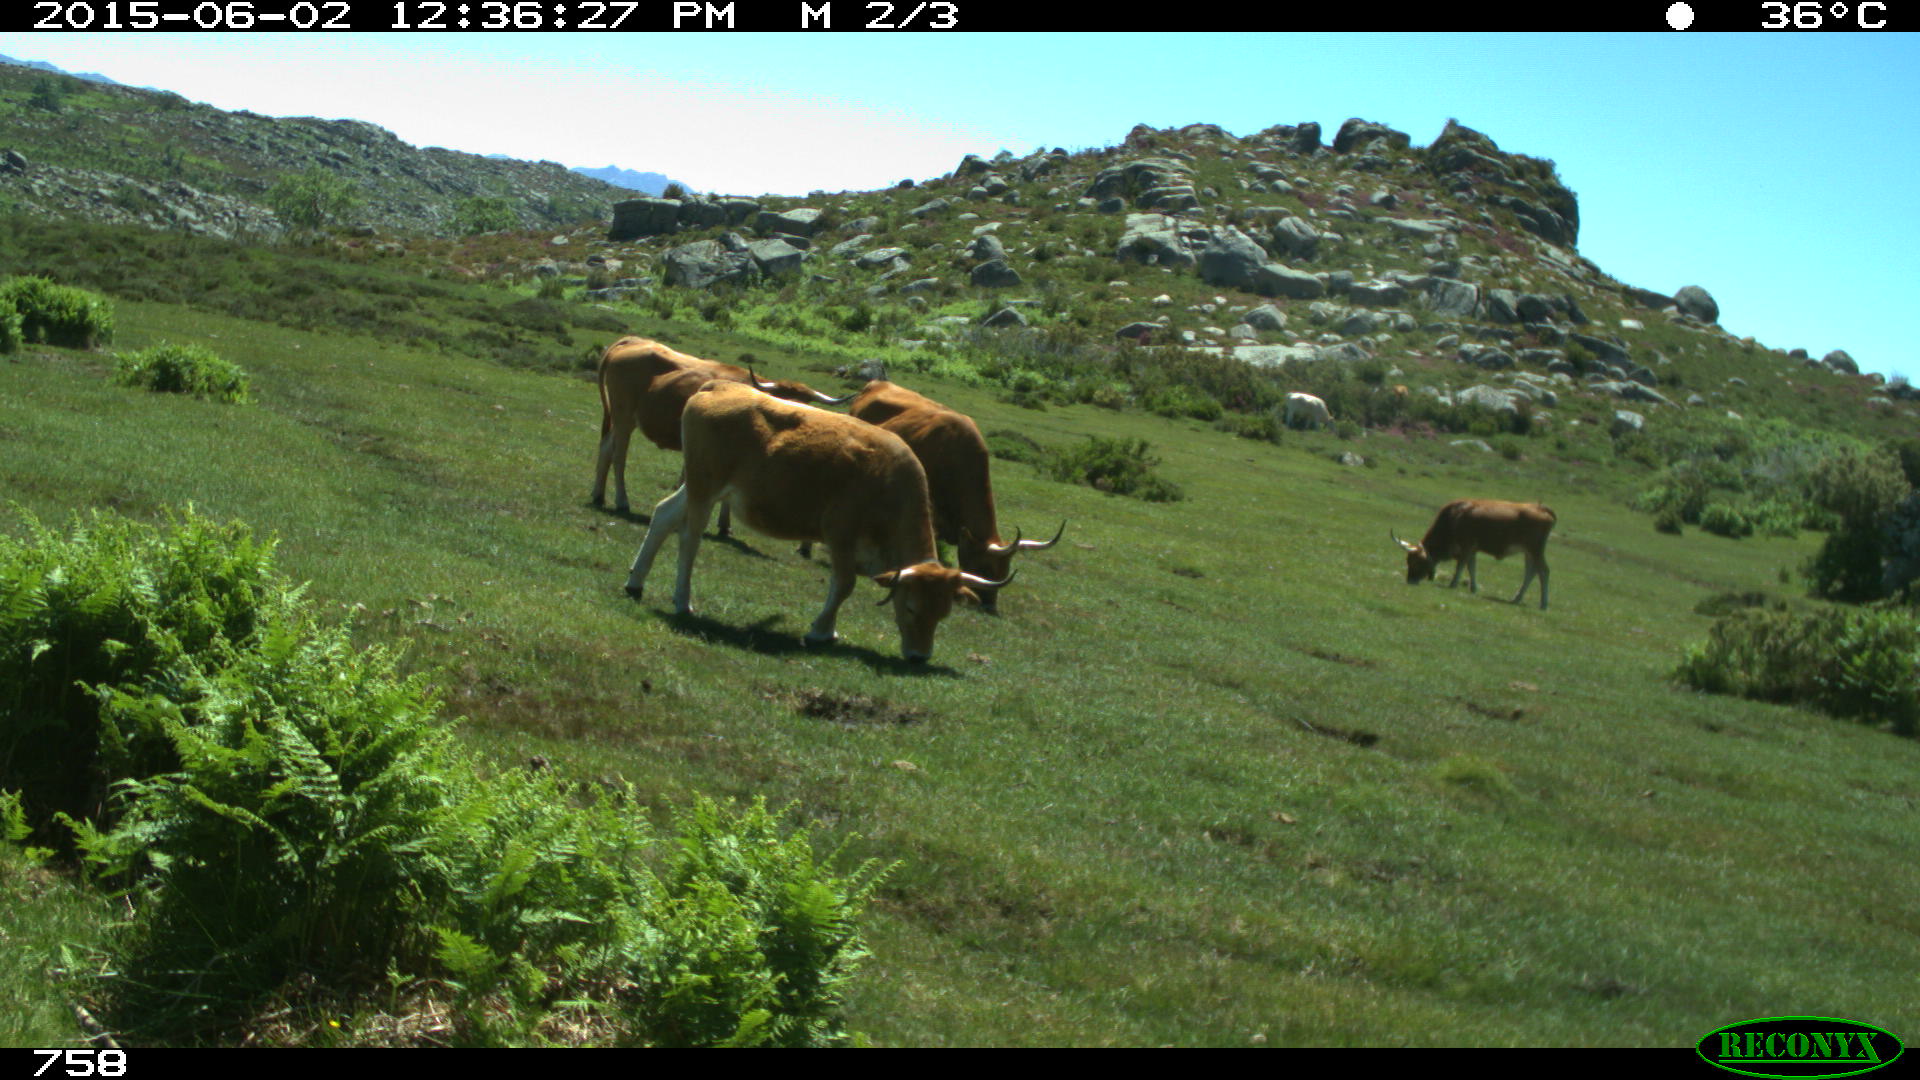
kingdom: Animalia
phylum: Chordata
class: Mammalia
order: Artiodactyla
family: Bovidae
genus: Bos
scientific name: Bos taurus
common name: Domesticated cattle
